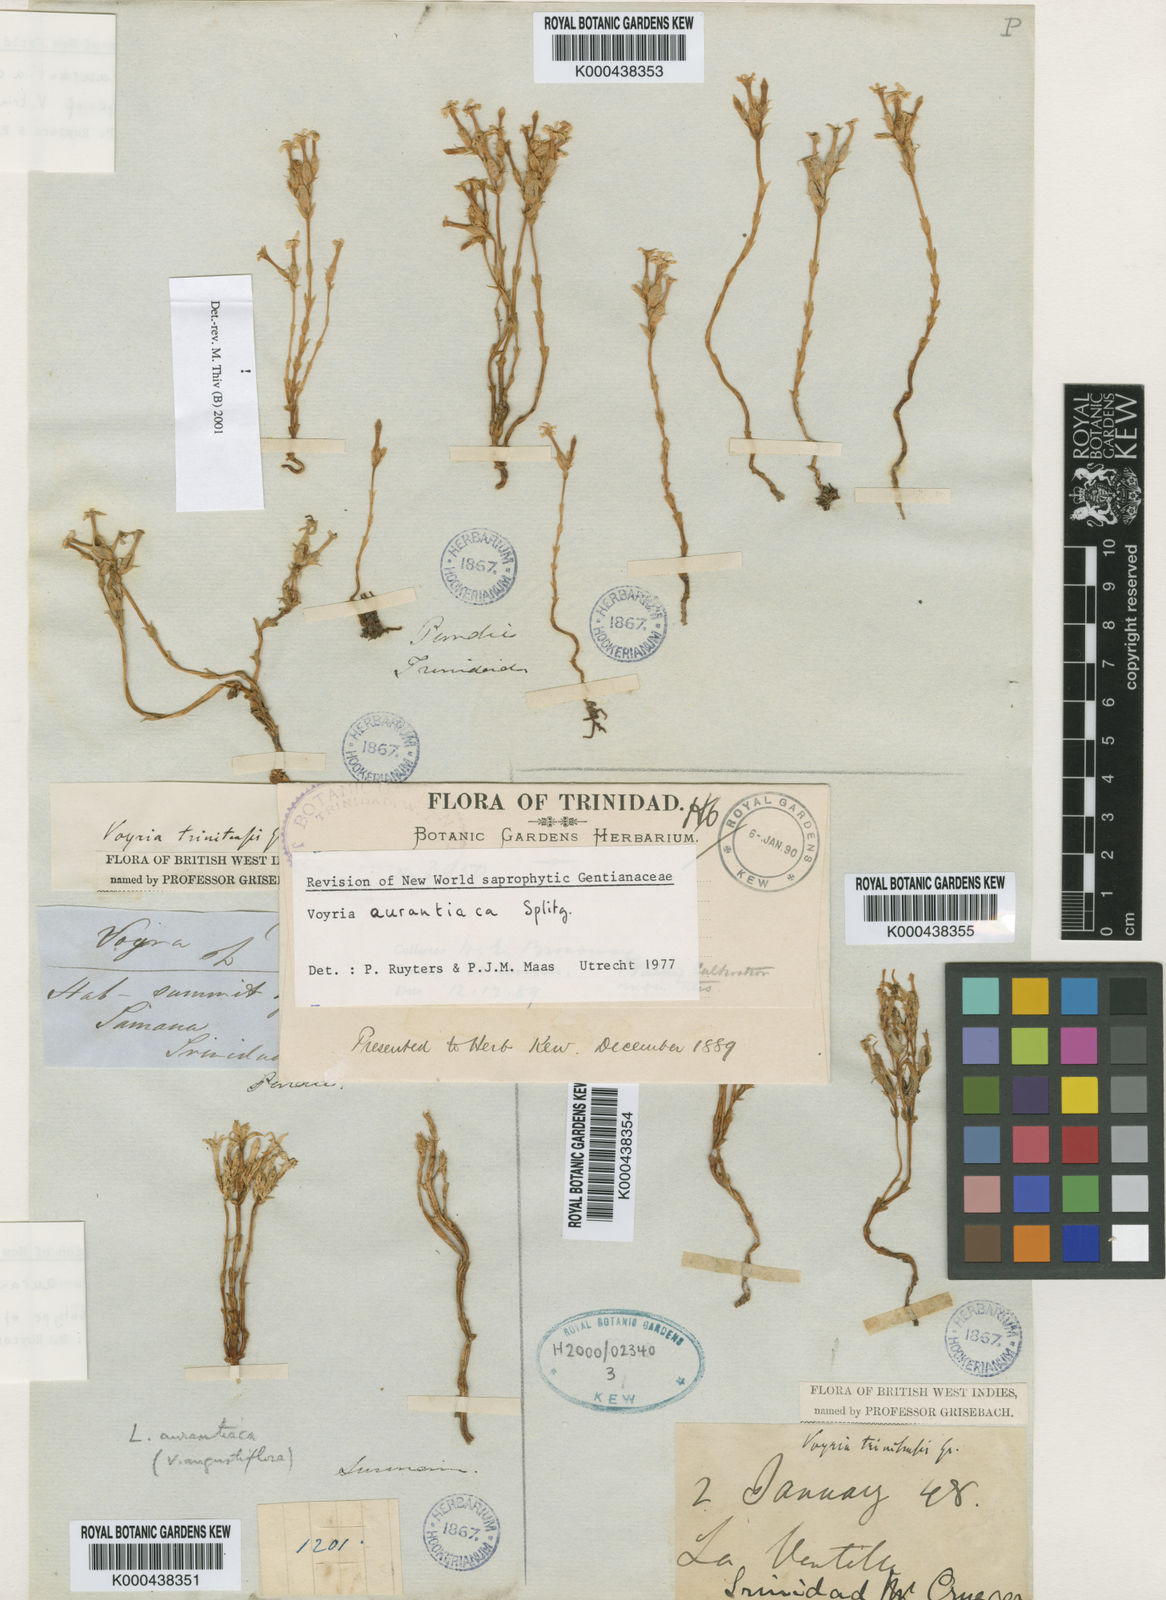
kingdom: Plantae
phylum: Tracheophyta
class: Magnoliopsida
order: Gentianales
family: Gentianaceae
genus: Voyria
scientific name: Voyria aurantiaca
